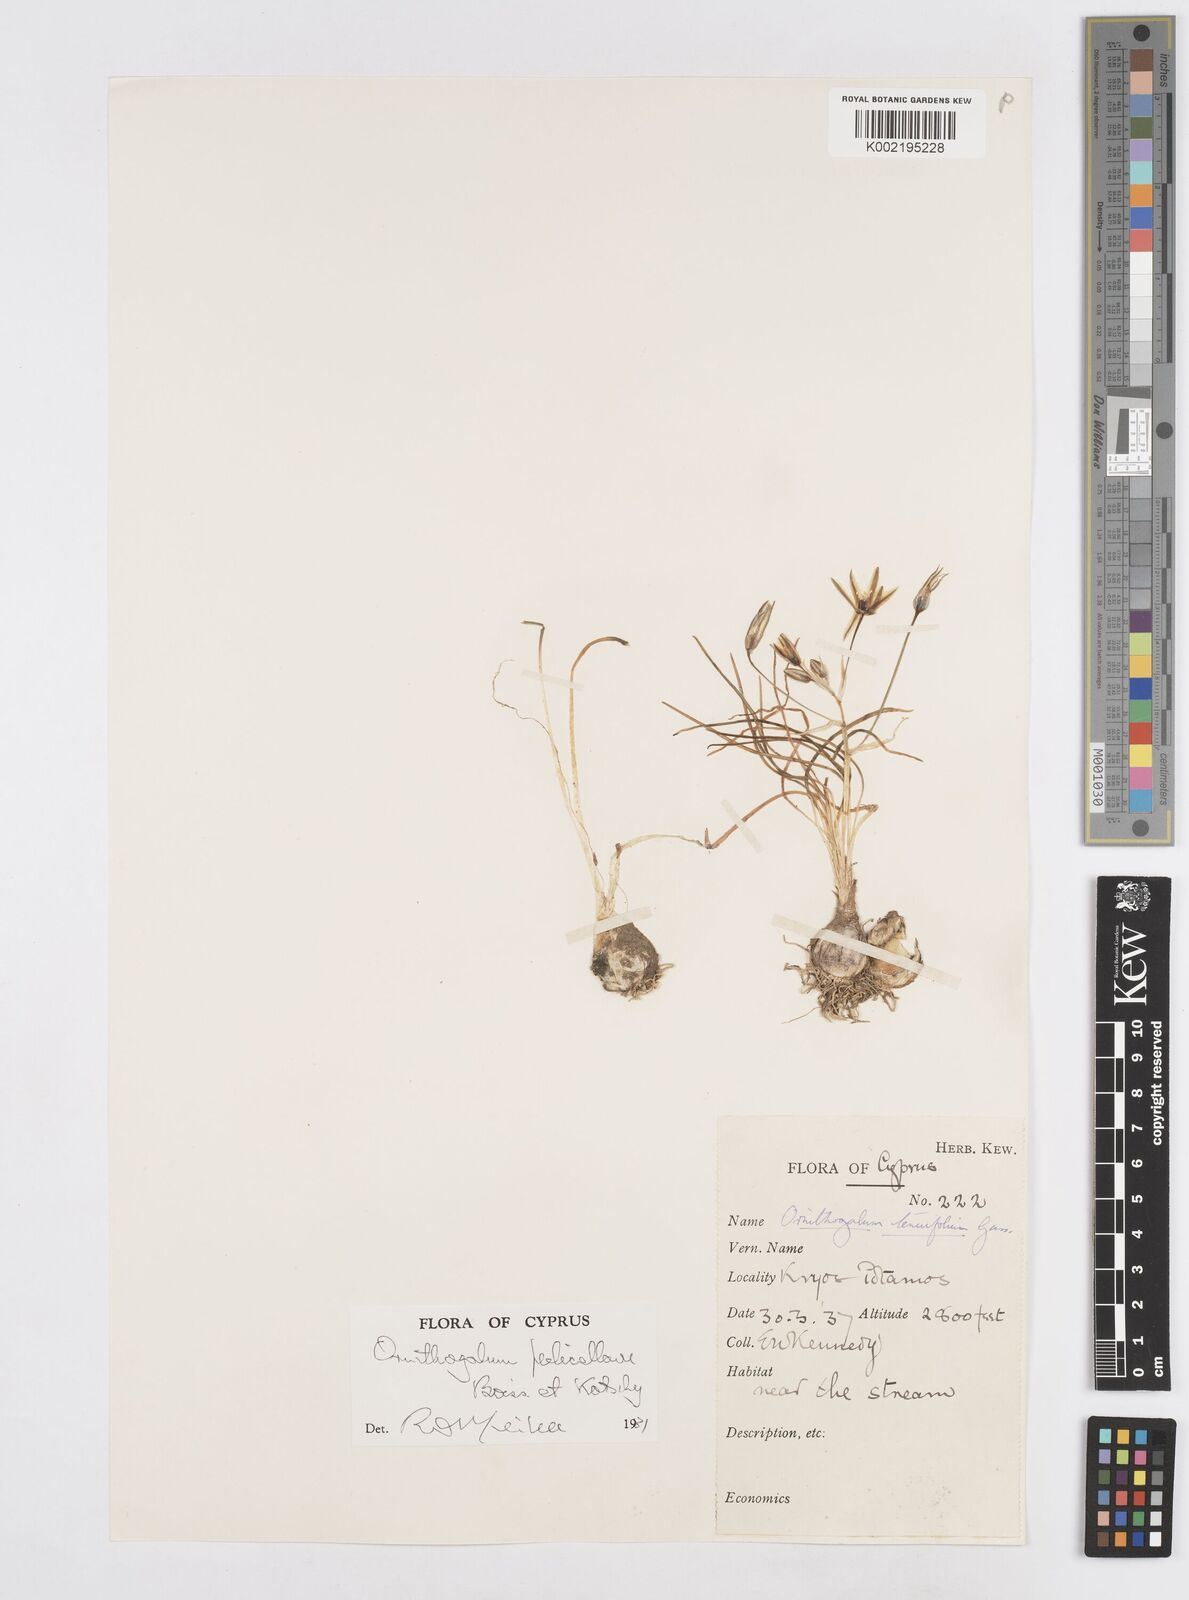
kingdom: Plantae
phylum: Tracheophyta
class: Liliopsida
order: Asparagales
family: Asparagaceae
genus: Ornithogalum
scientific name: Ornithogalum pedicellare
